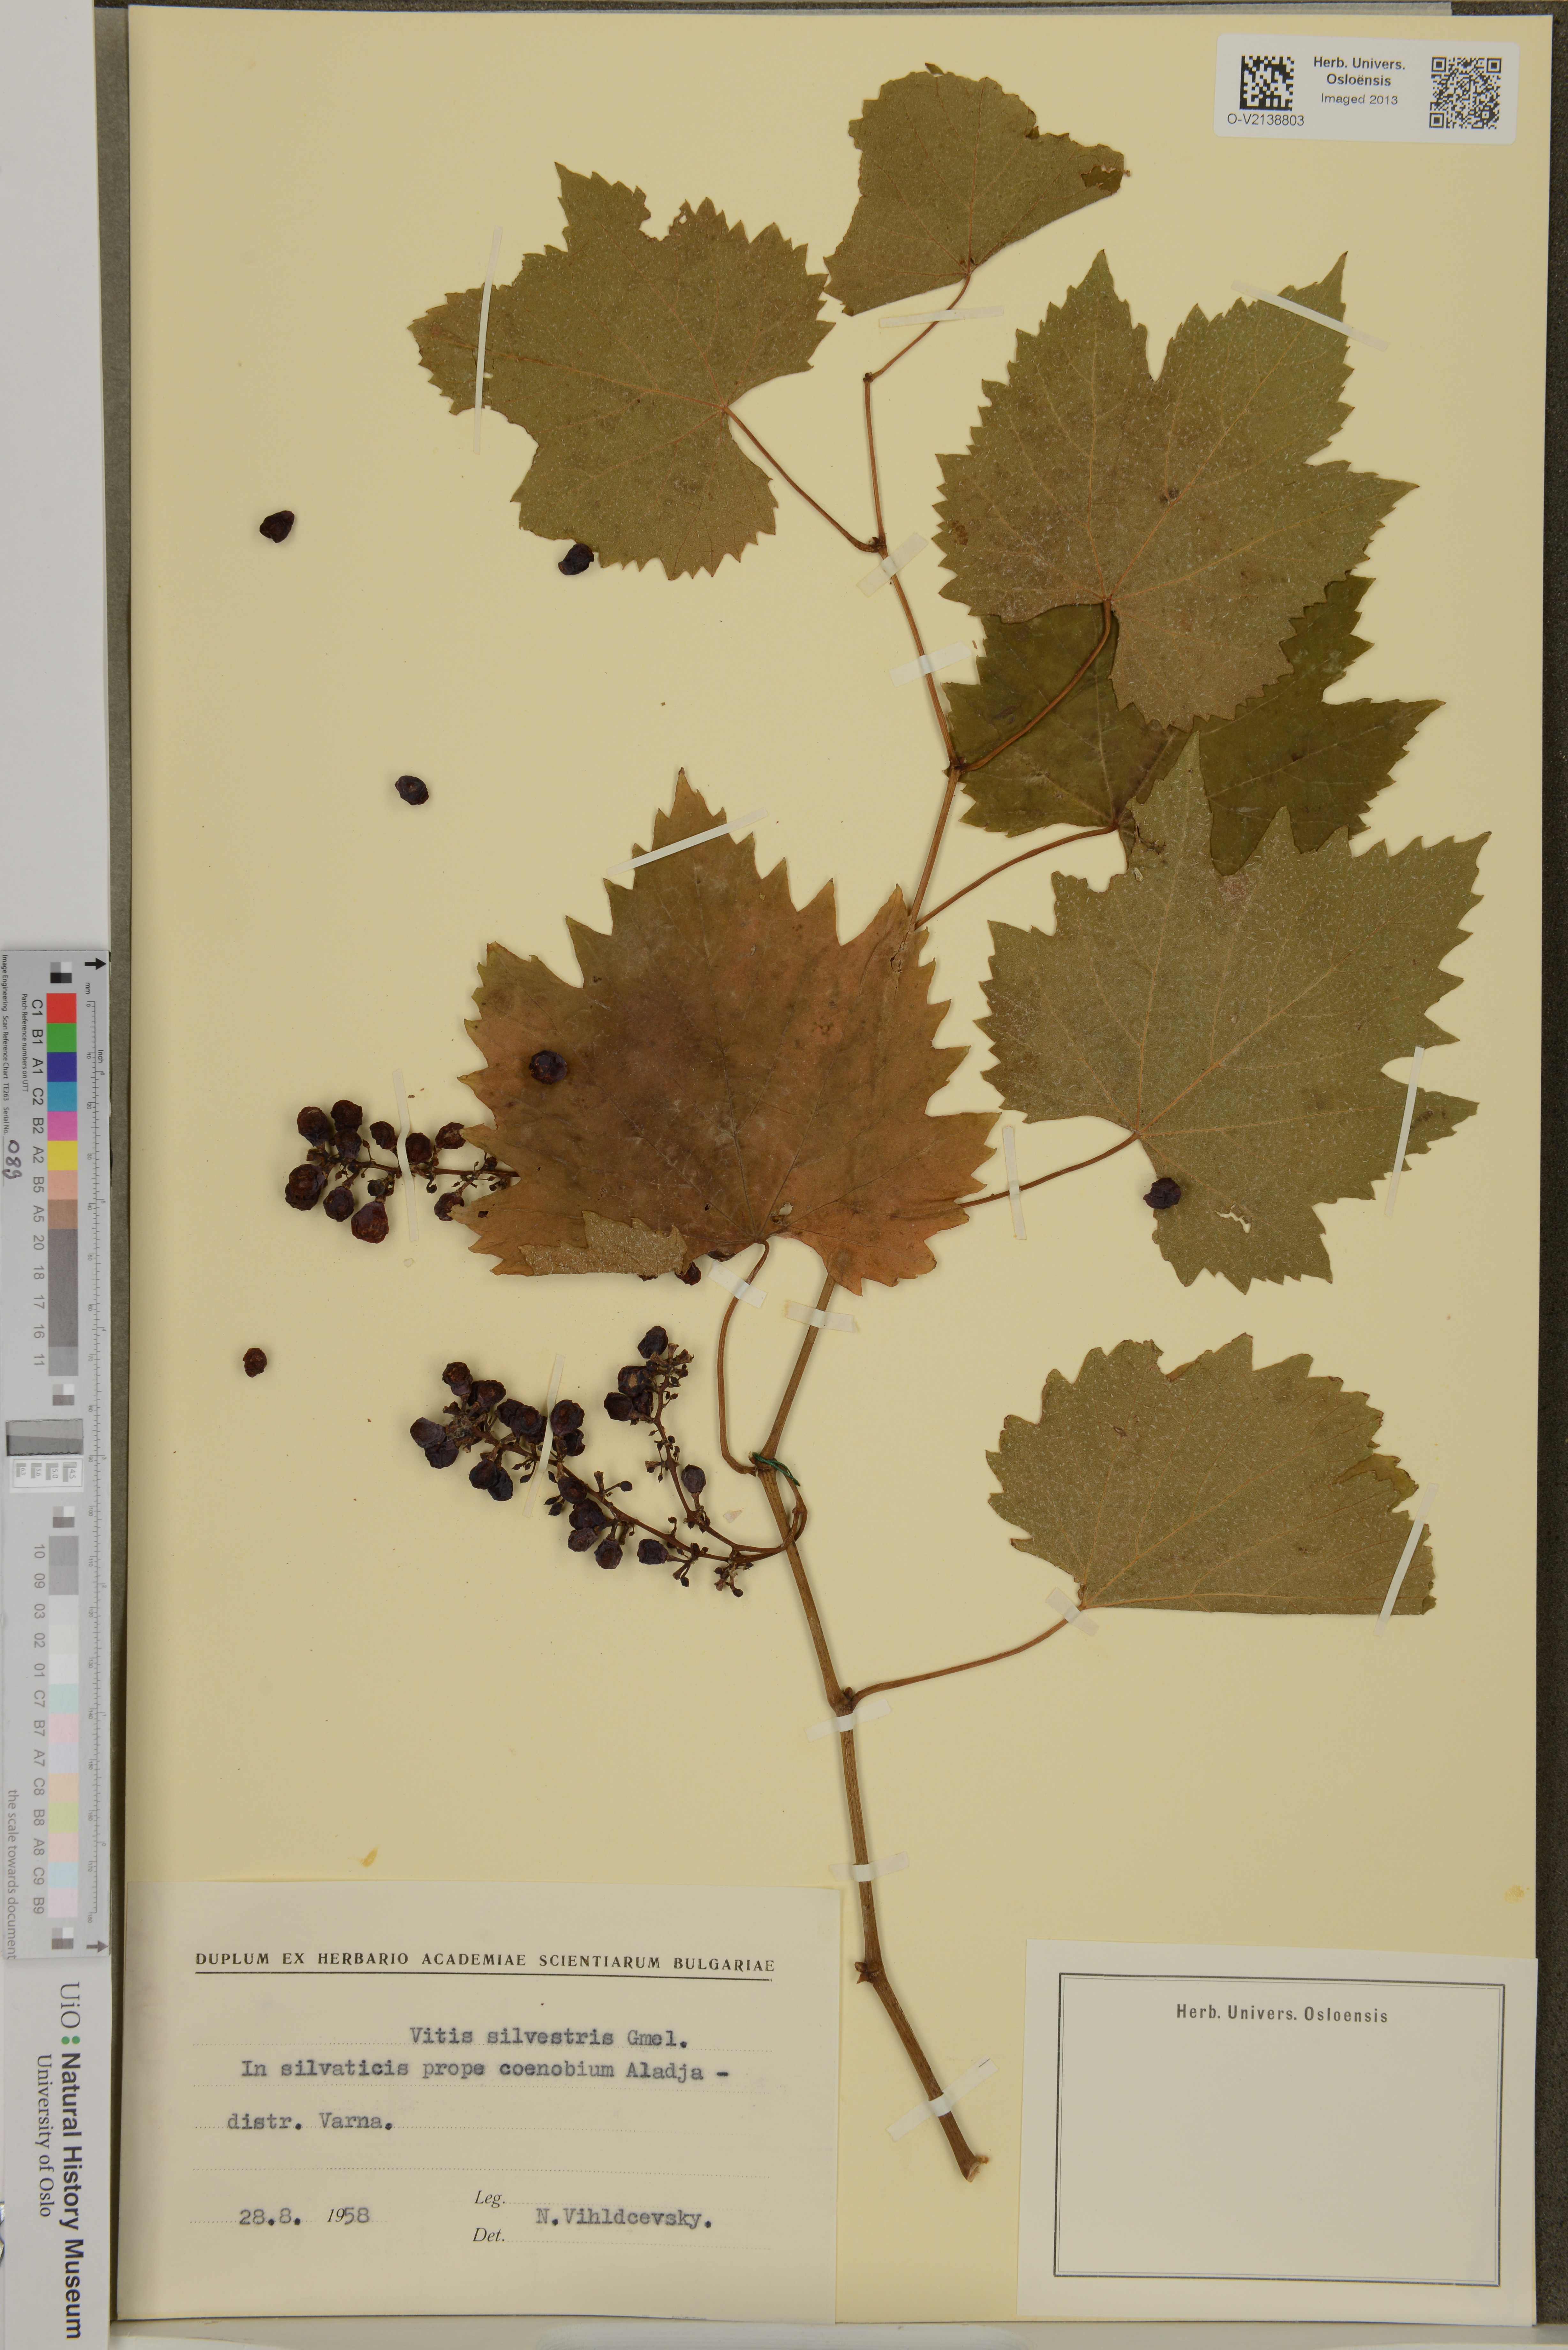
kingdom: Plantae
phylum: Tracheophyta
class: Magnoliopsida
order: Vitales
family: Vitaceae
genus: Vitis
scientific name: Vitis vinifera
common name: Grape-vine
